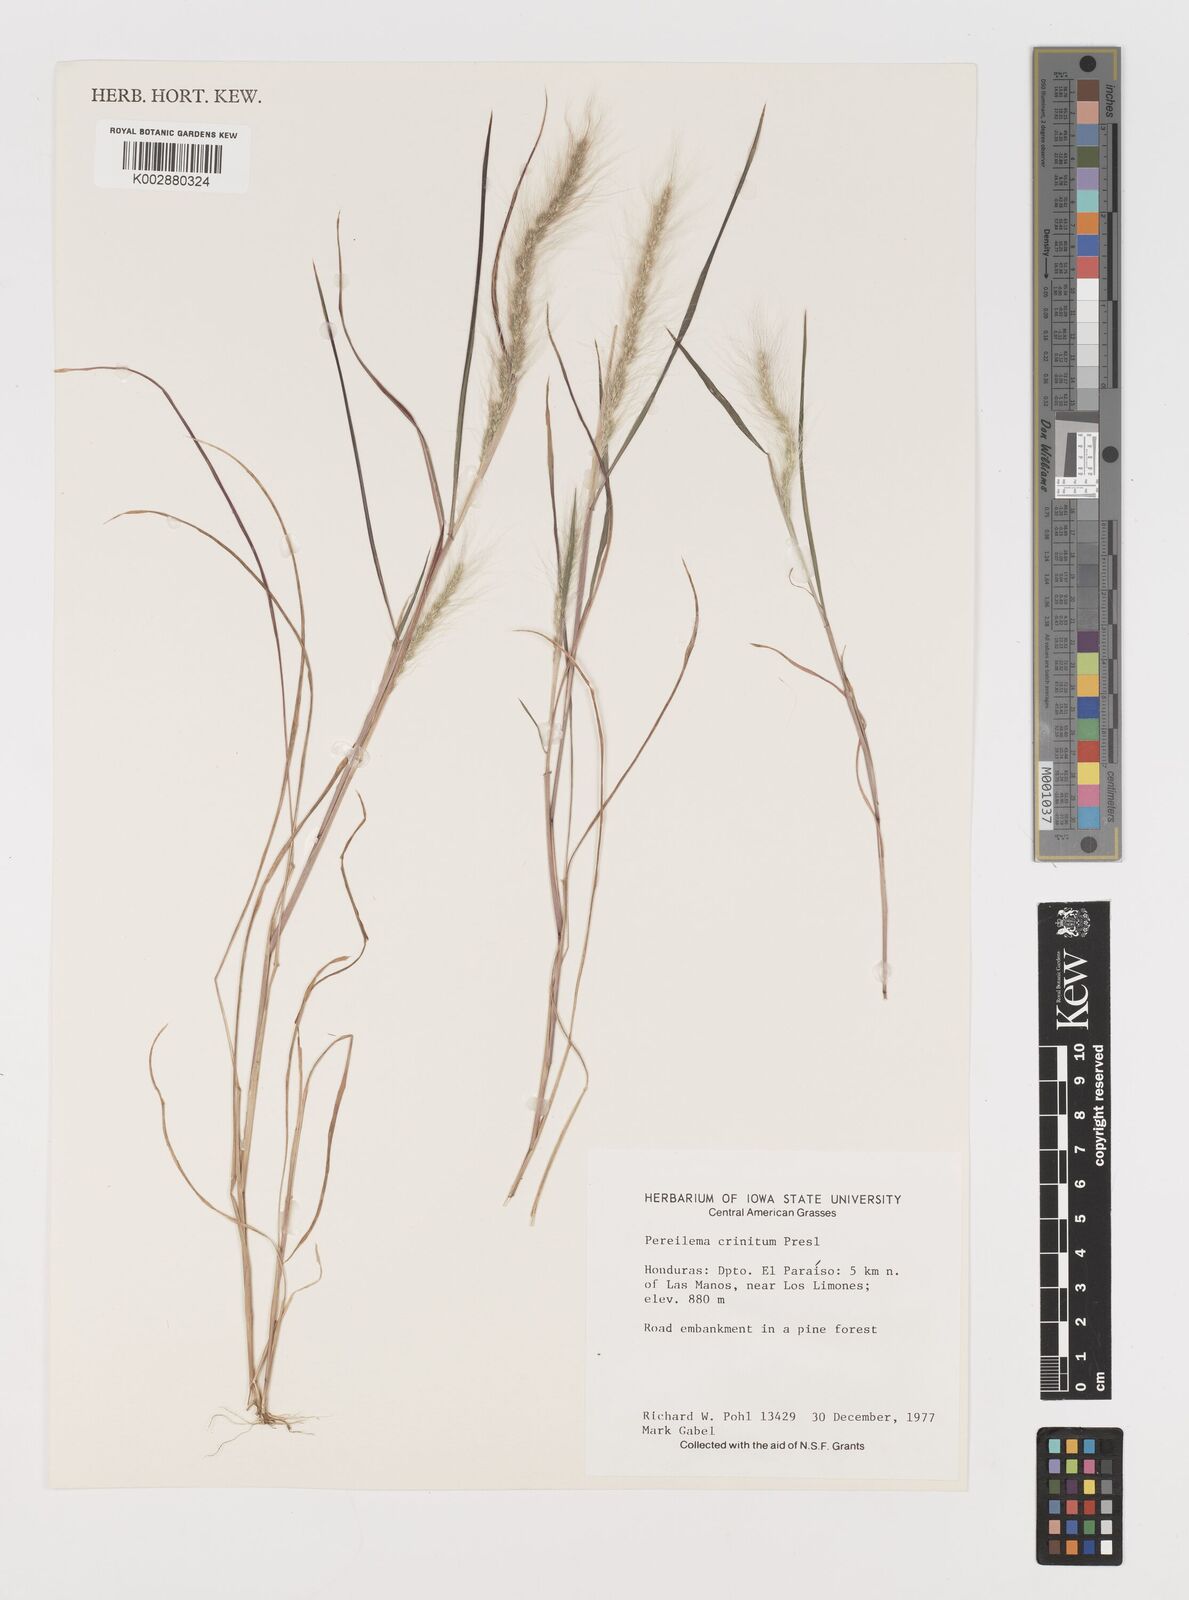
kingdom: Plantae
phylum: Tracheophyta
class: Liliopsida
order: Poales
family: Poaceae
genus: Muhlenbergia
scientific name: Muhlenbergia pereilema
